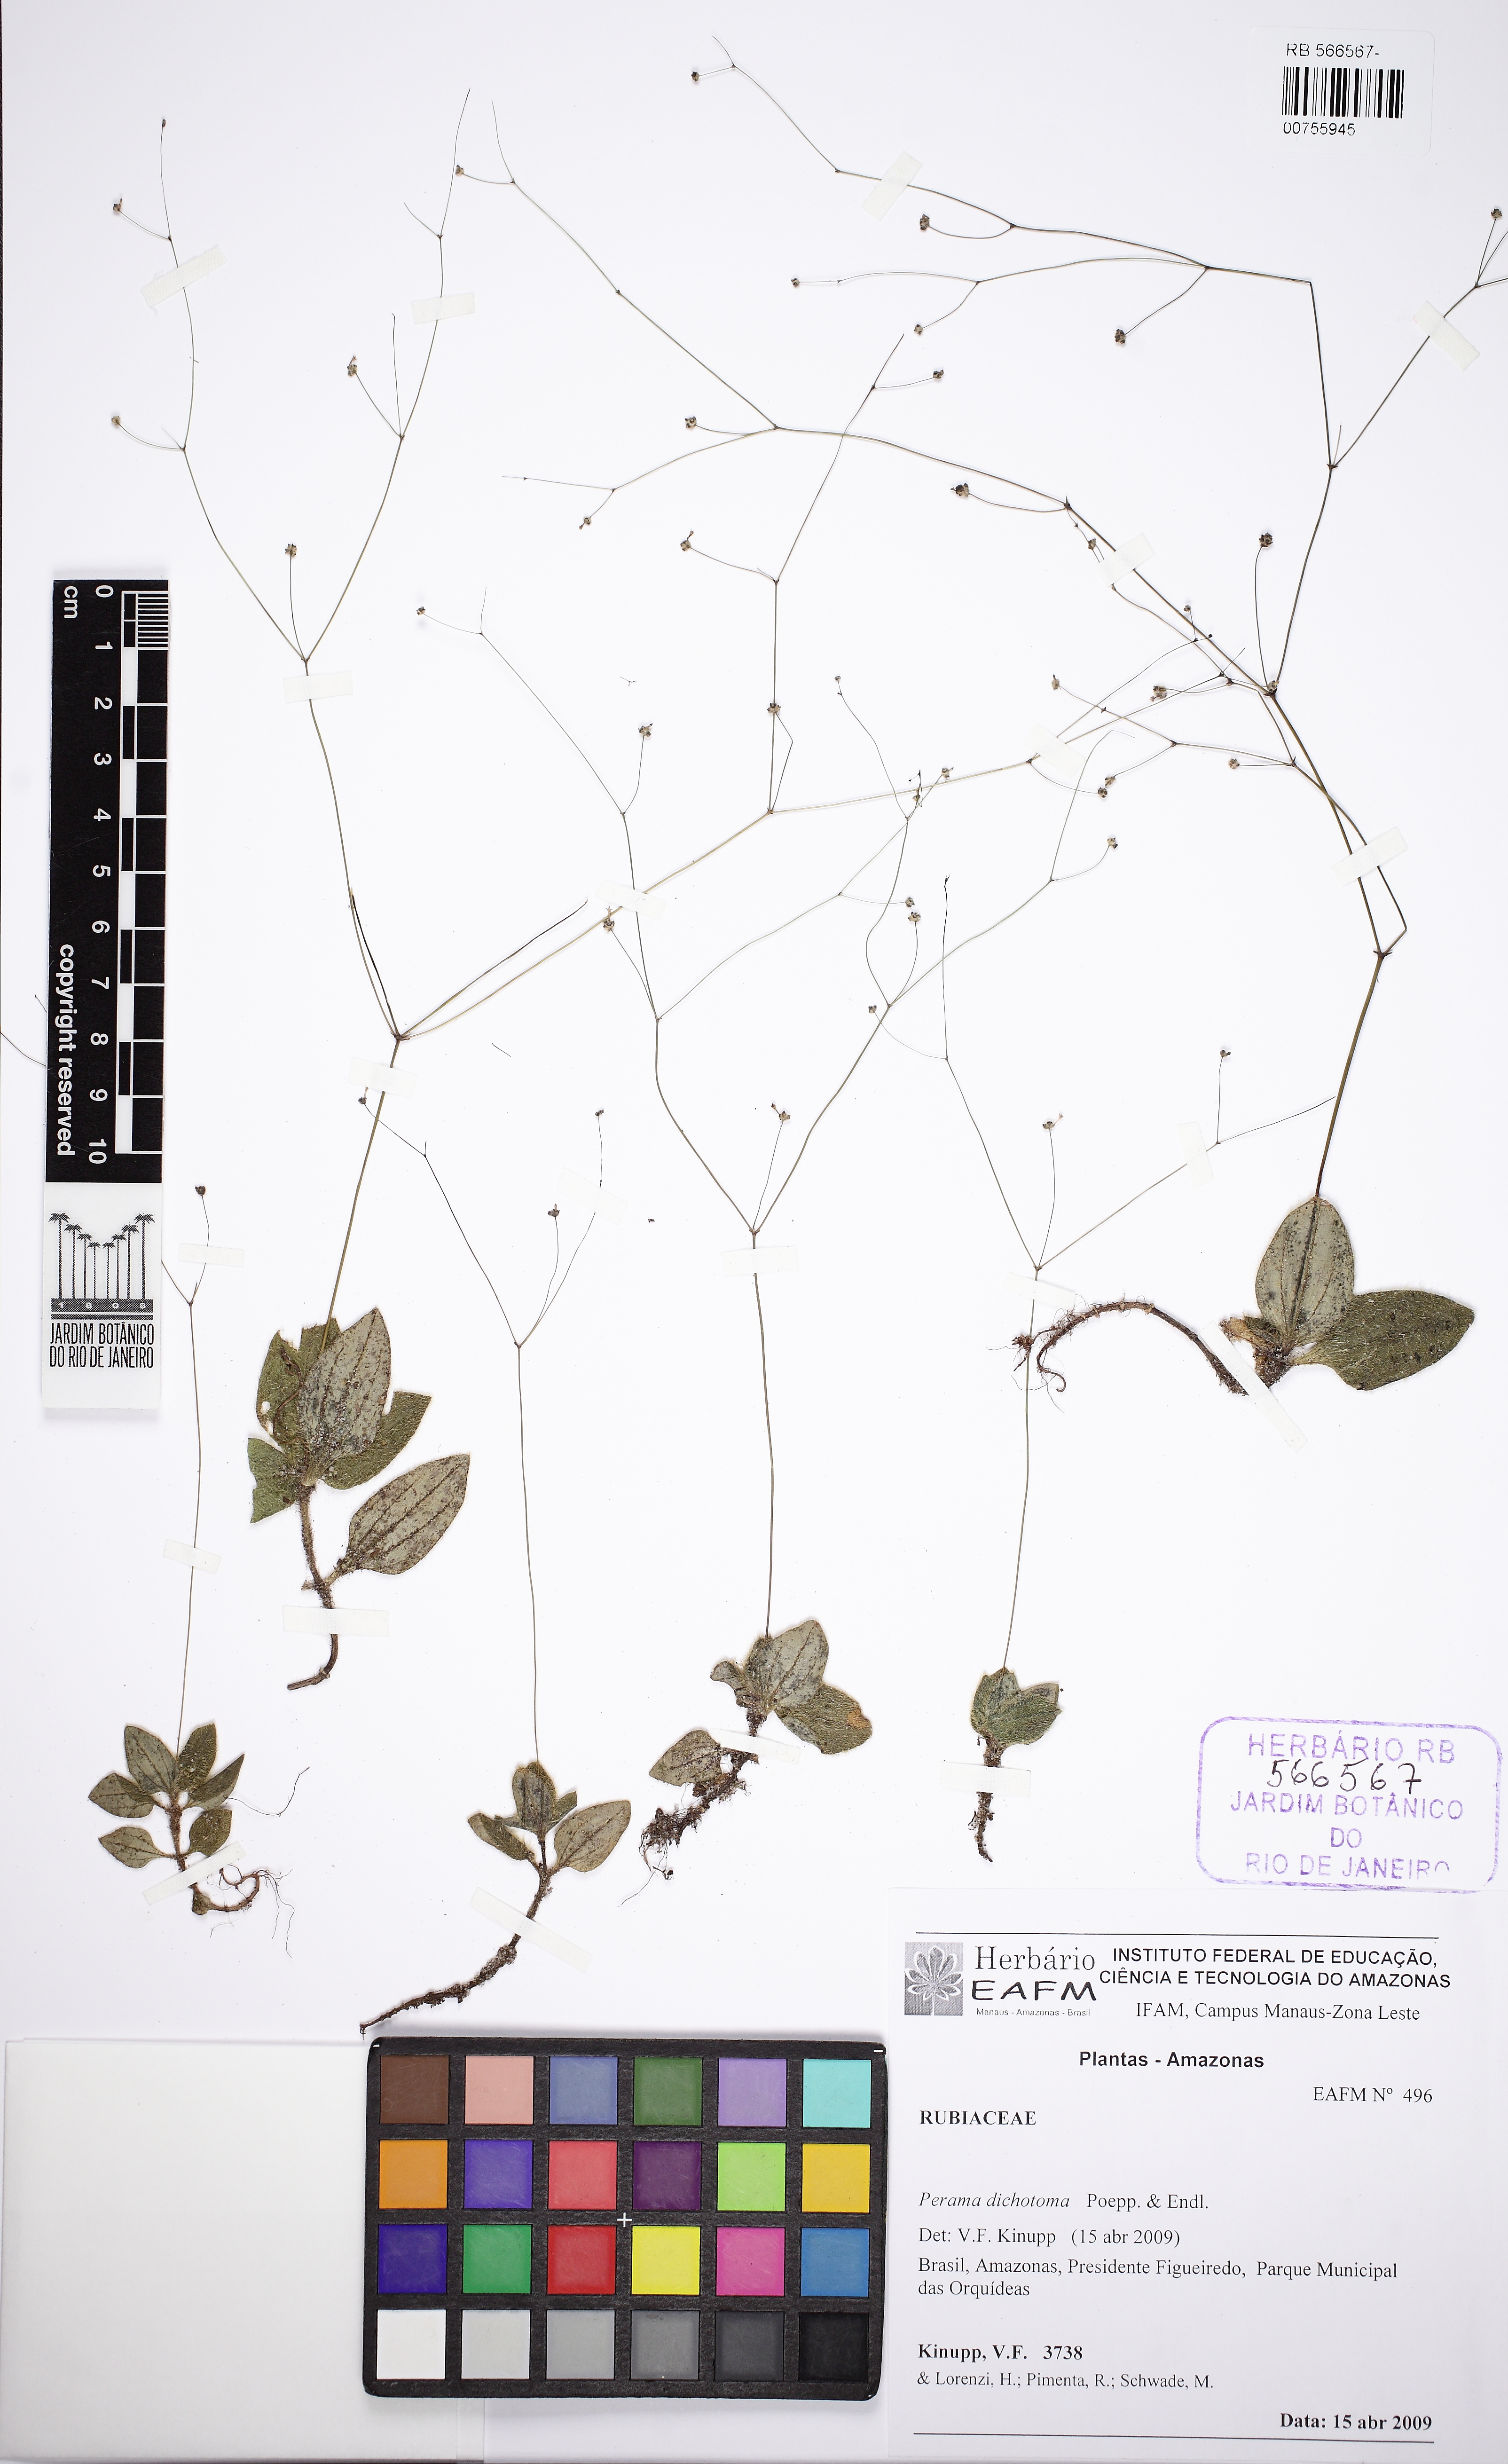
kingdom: Plantae
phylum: Tracheophyta
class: Magnoliopsida
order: Gentianales
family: Rubiaceae
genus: Perama
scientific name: Perama dichotoma
